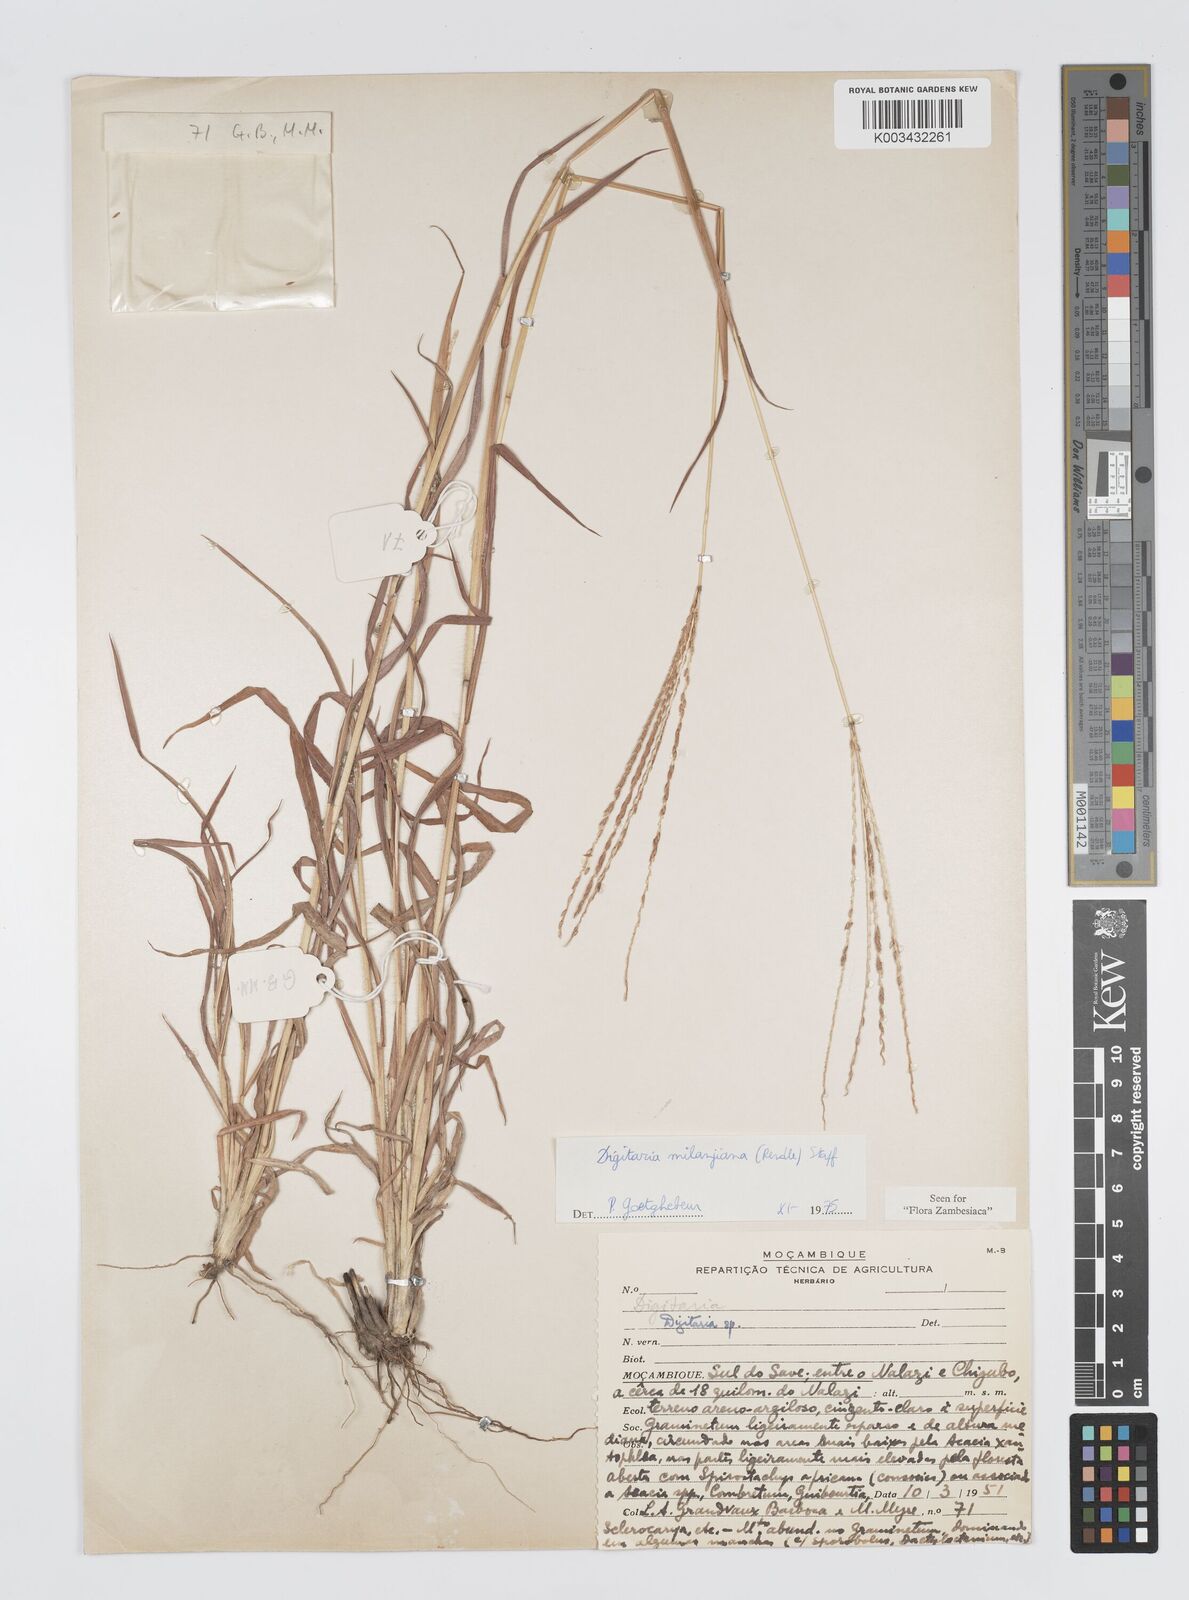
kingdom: Plantae
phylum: Tracheophyta
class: Liliopsida
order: Poales
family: Poaceae
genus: Digitaria
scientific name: Digitaria milanjiana
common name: Madagascar crabgrass
